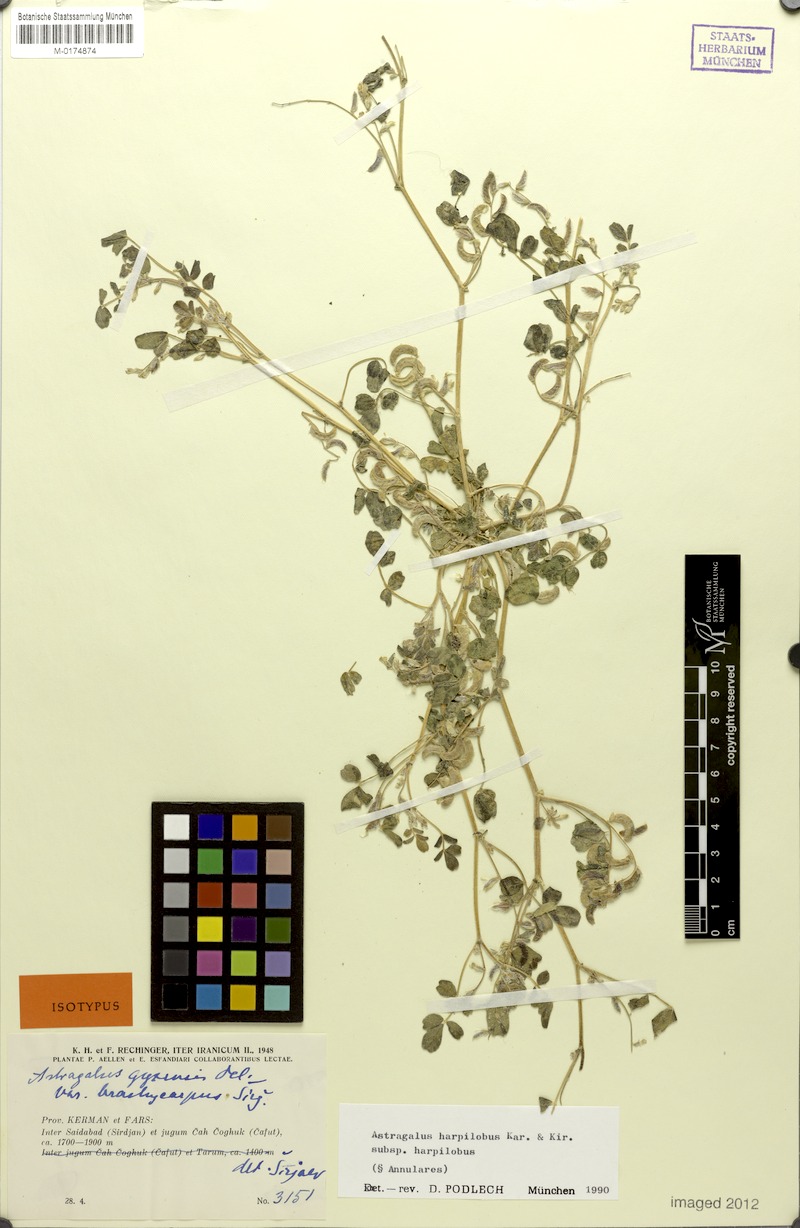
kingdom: Plantae
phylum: Tracheophyta
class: Magnoliopsida
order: Fabales
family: Fabaceae
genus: Astragalus
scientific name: Astragalus arpilobus
